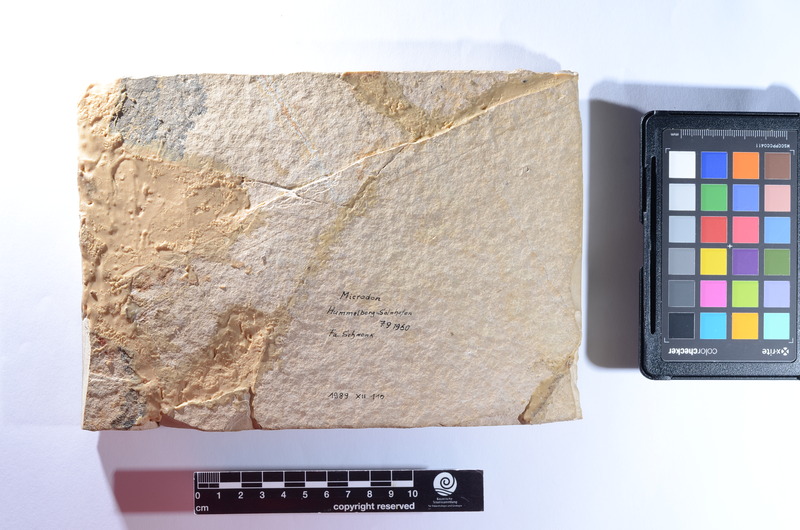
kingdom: Animalia
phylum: Chordata
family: Gyrodontidae
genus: Gyrodus
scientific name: Gyrodus hexagonus
